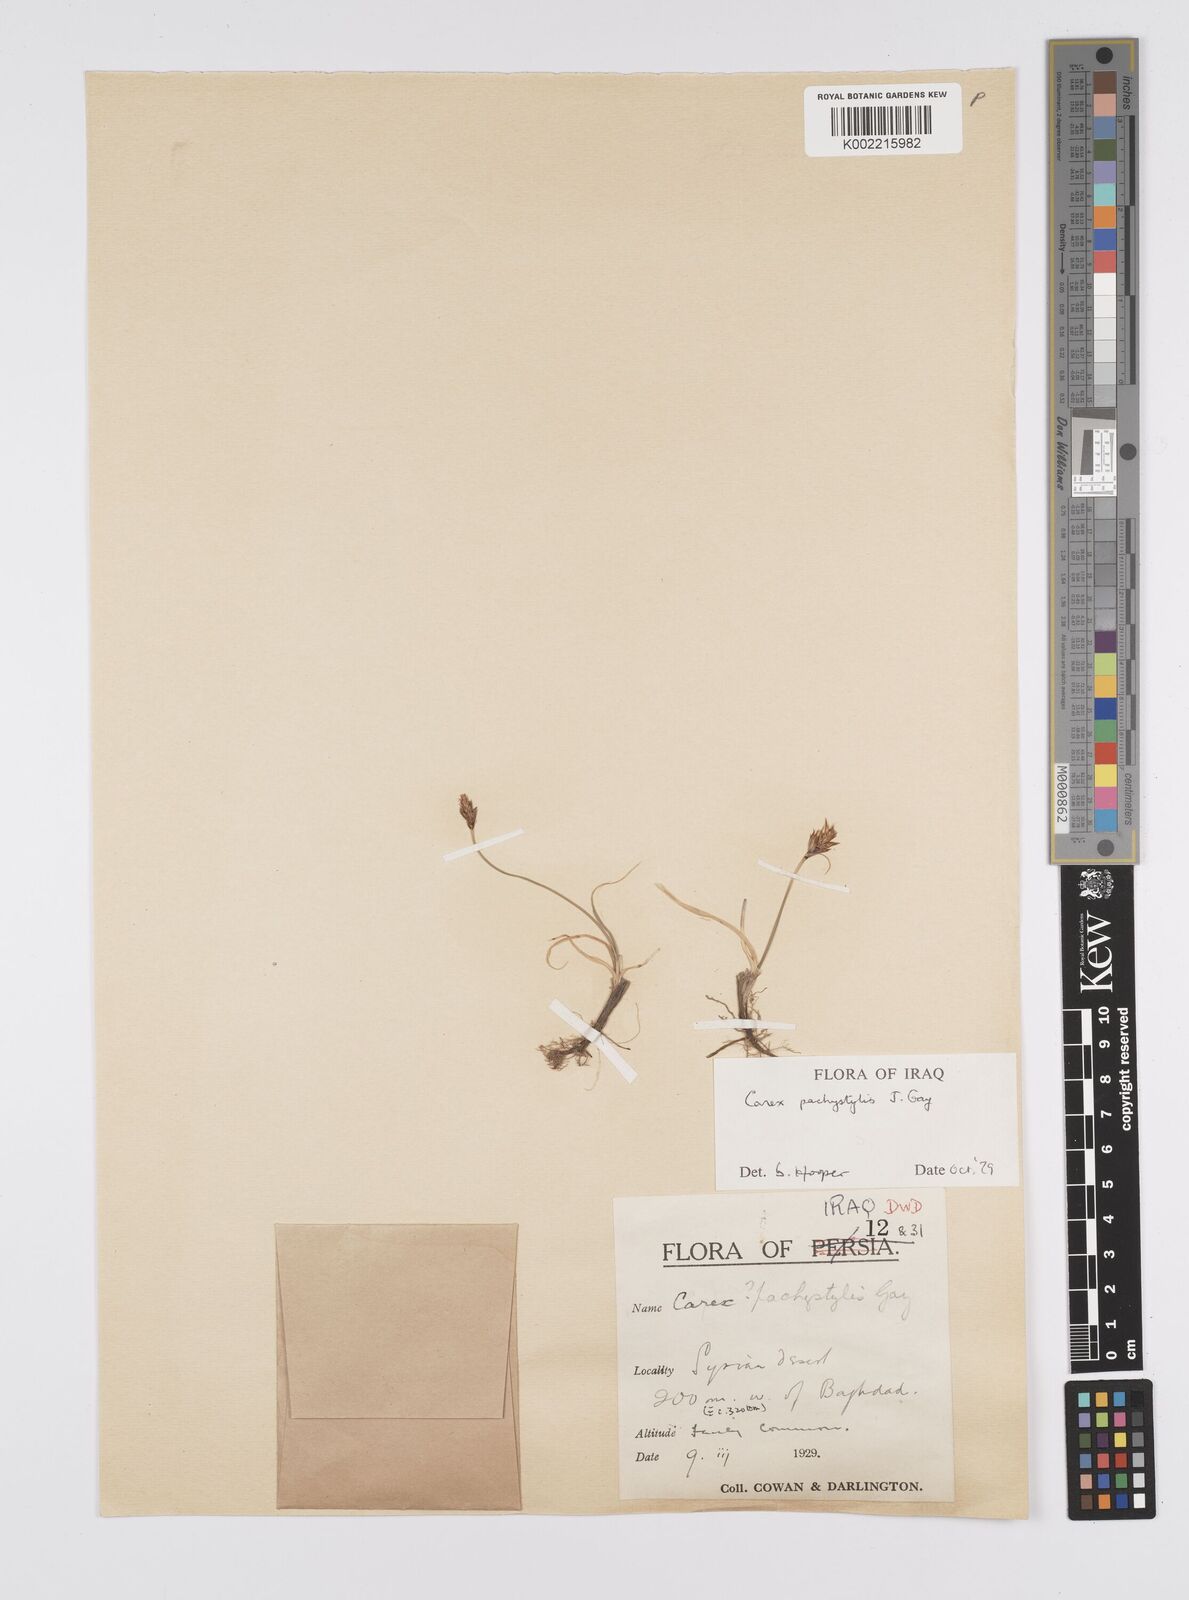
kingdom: Plantae
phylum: Tracheophyta
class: Liliopsida
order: Poales
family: Cyperaceae
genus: Carex
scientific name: Carex pachystylis
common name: Thick-stem sedge
